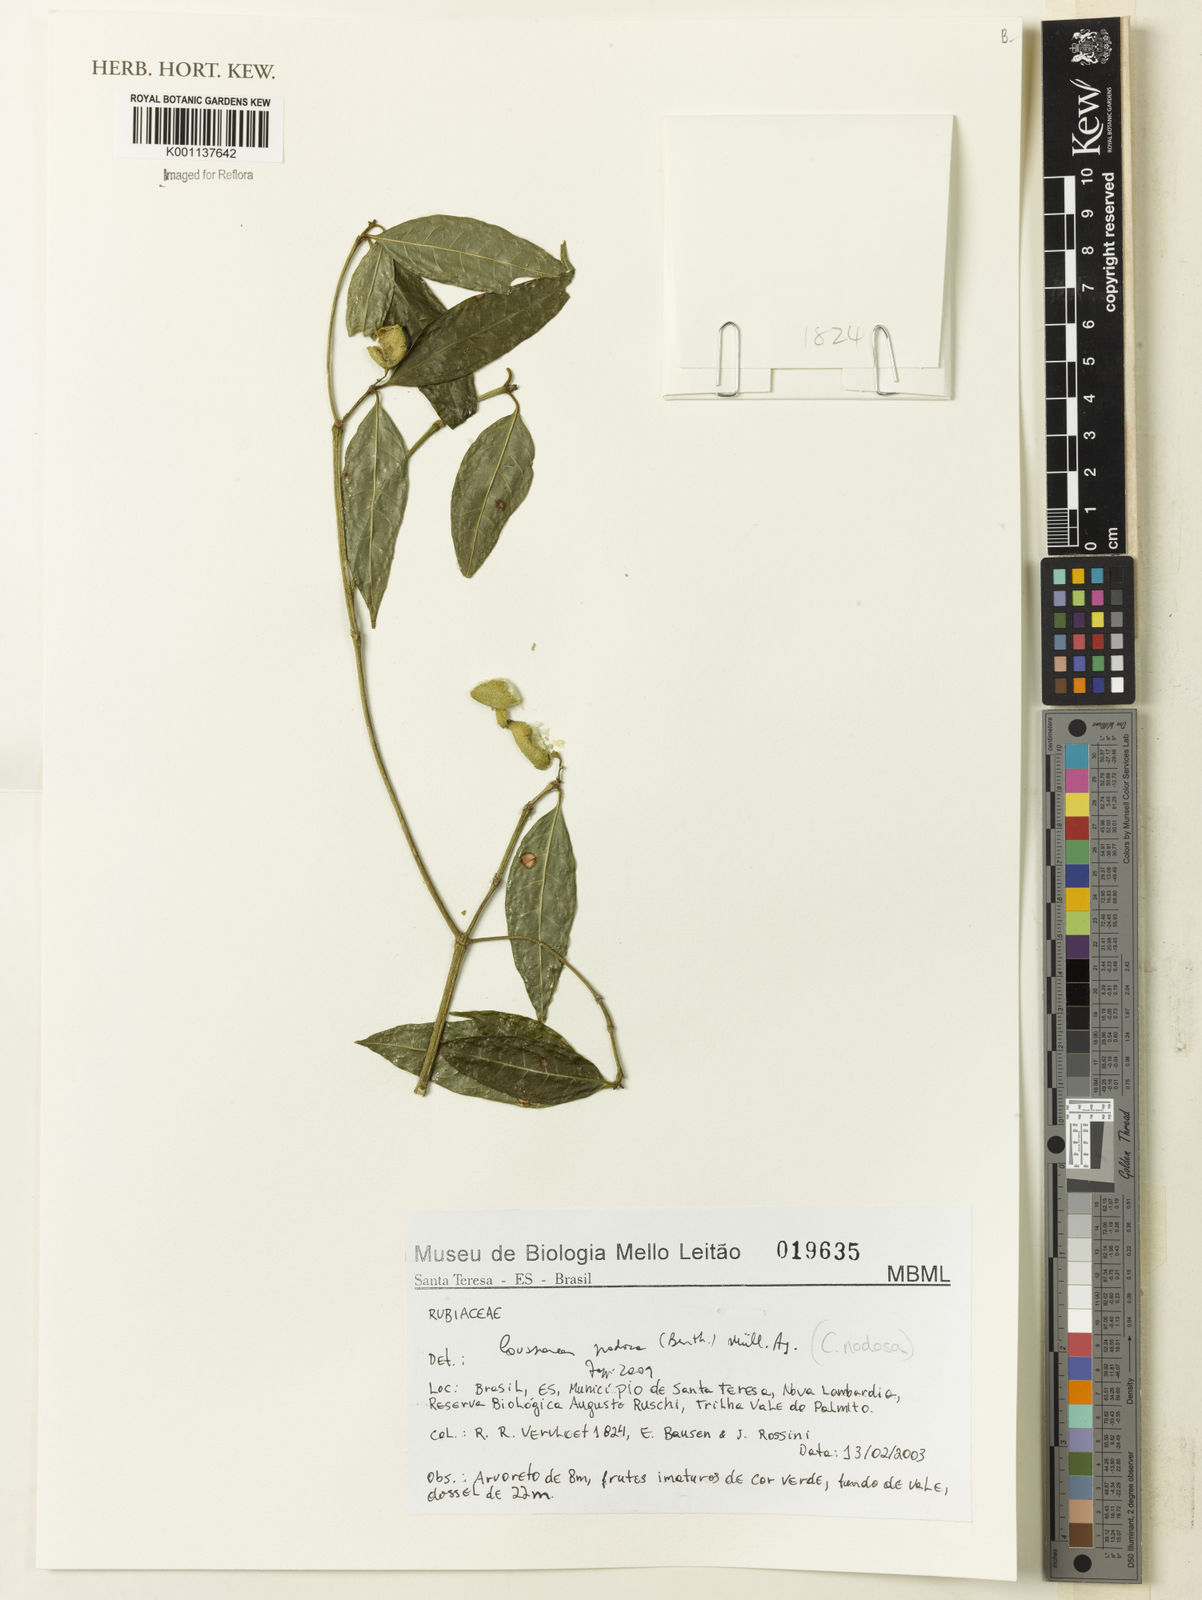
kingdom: Plantae
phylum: Tracheophyta
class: Magnoliopsida
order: Gentianales
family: Rubiaceae
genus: Coussarea
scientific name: Coussarea
